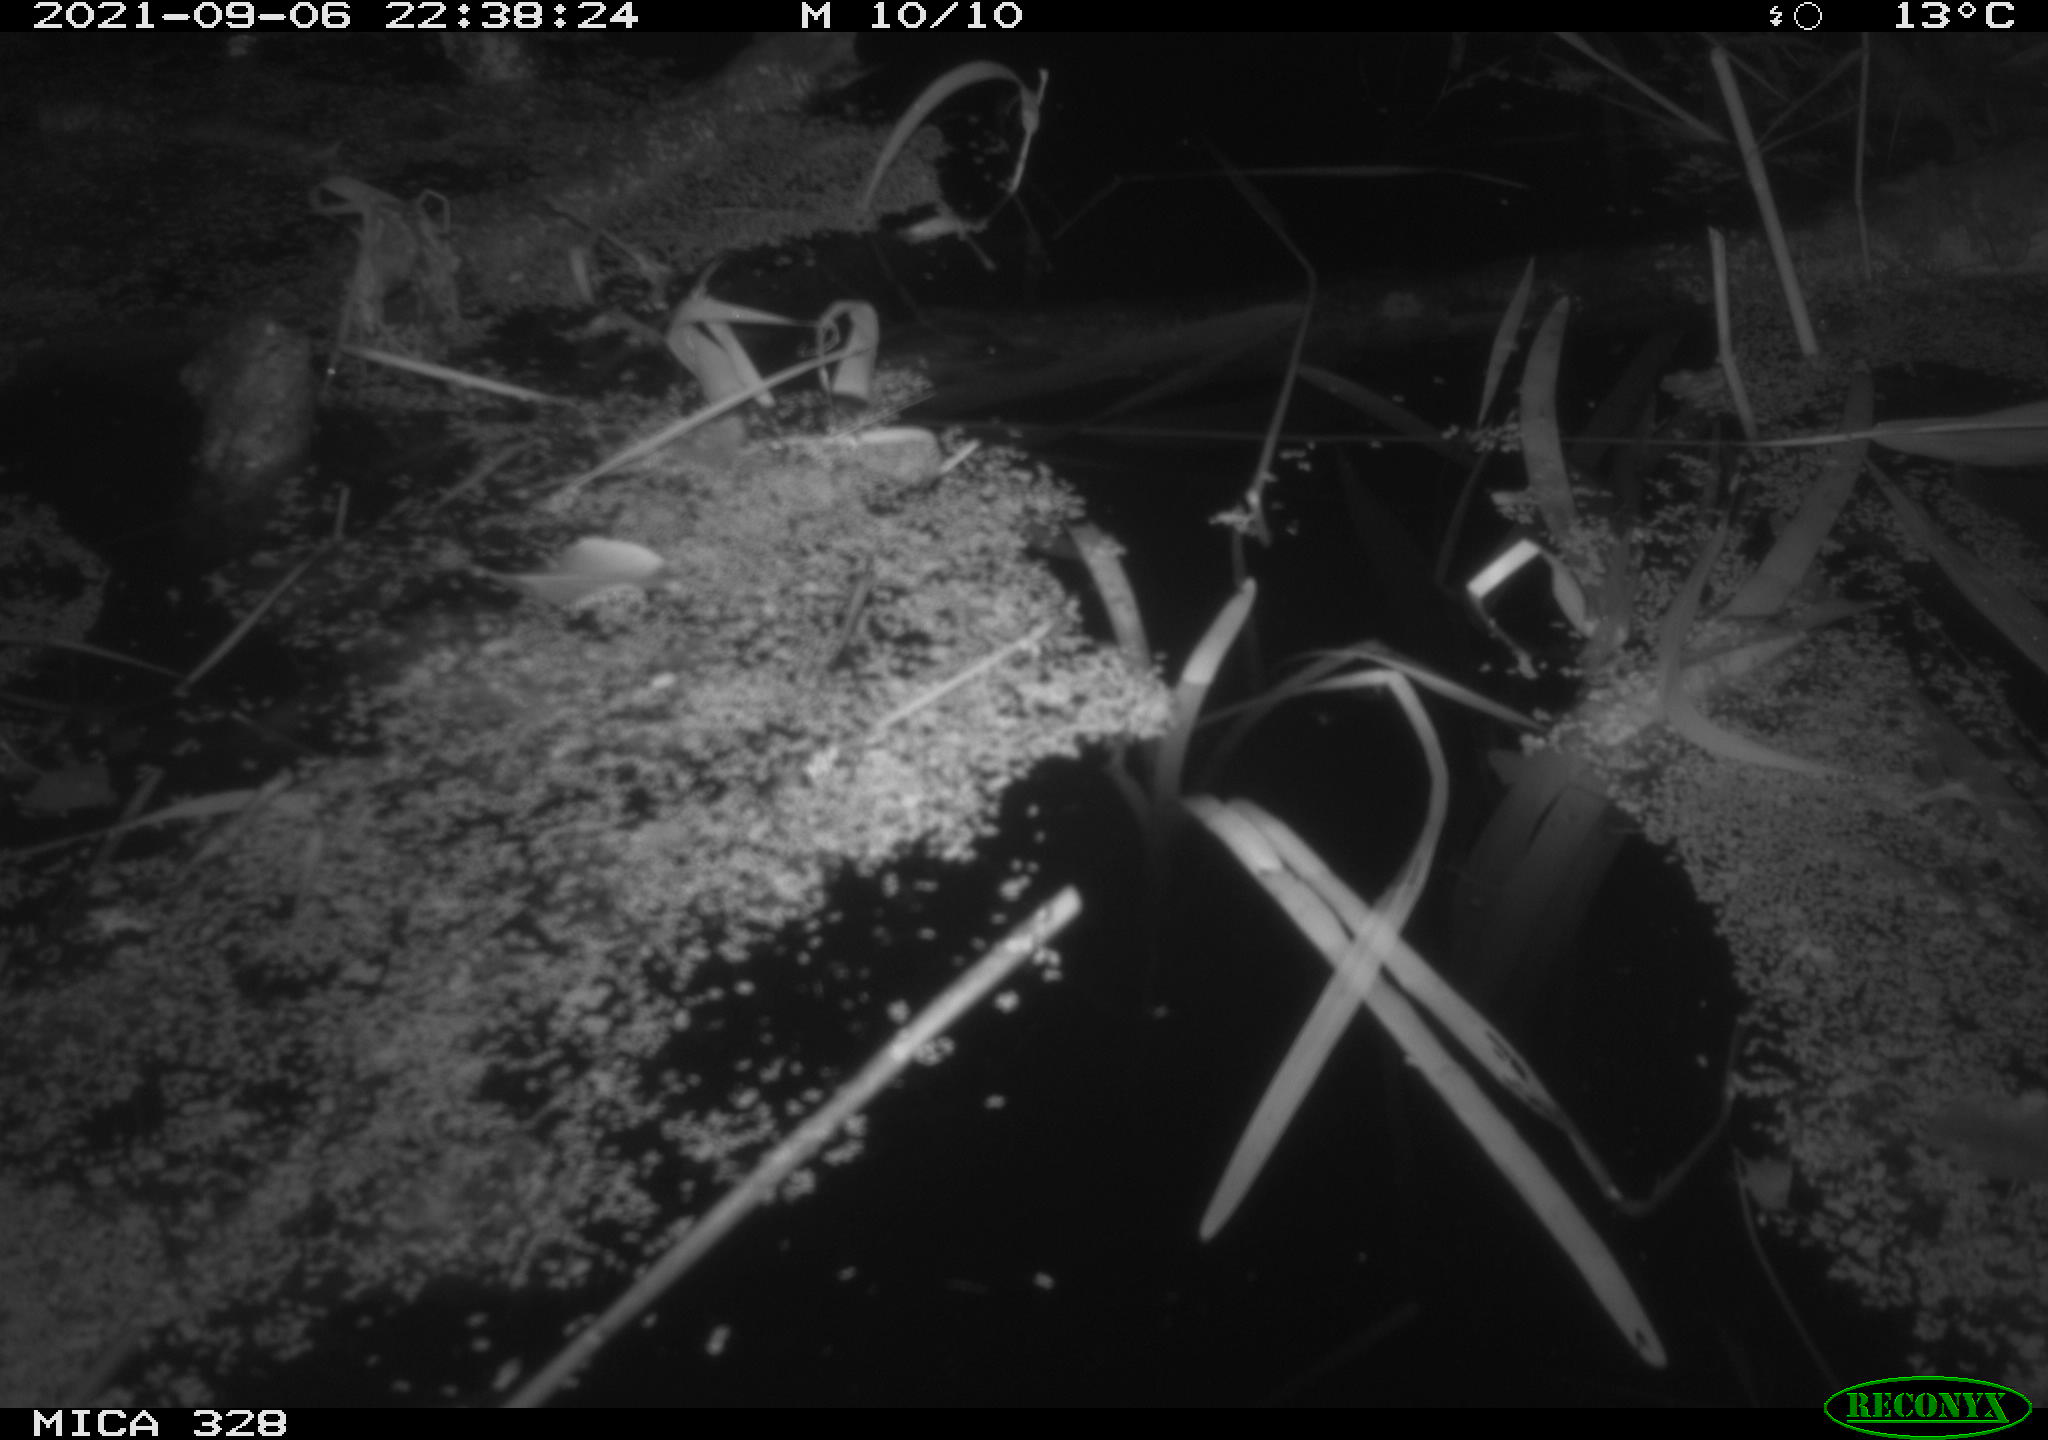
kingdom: Animalia
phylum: Chordata
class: Mammalia
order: Rodentia
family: Cricetidae
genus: Ondatra
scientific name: Ondatra zibethicus
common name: Muskrat
